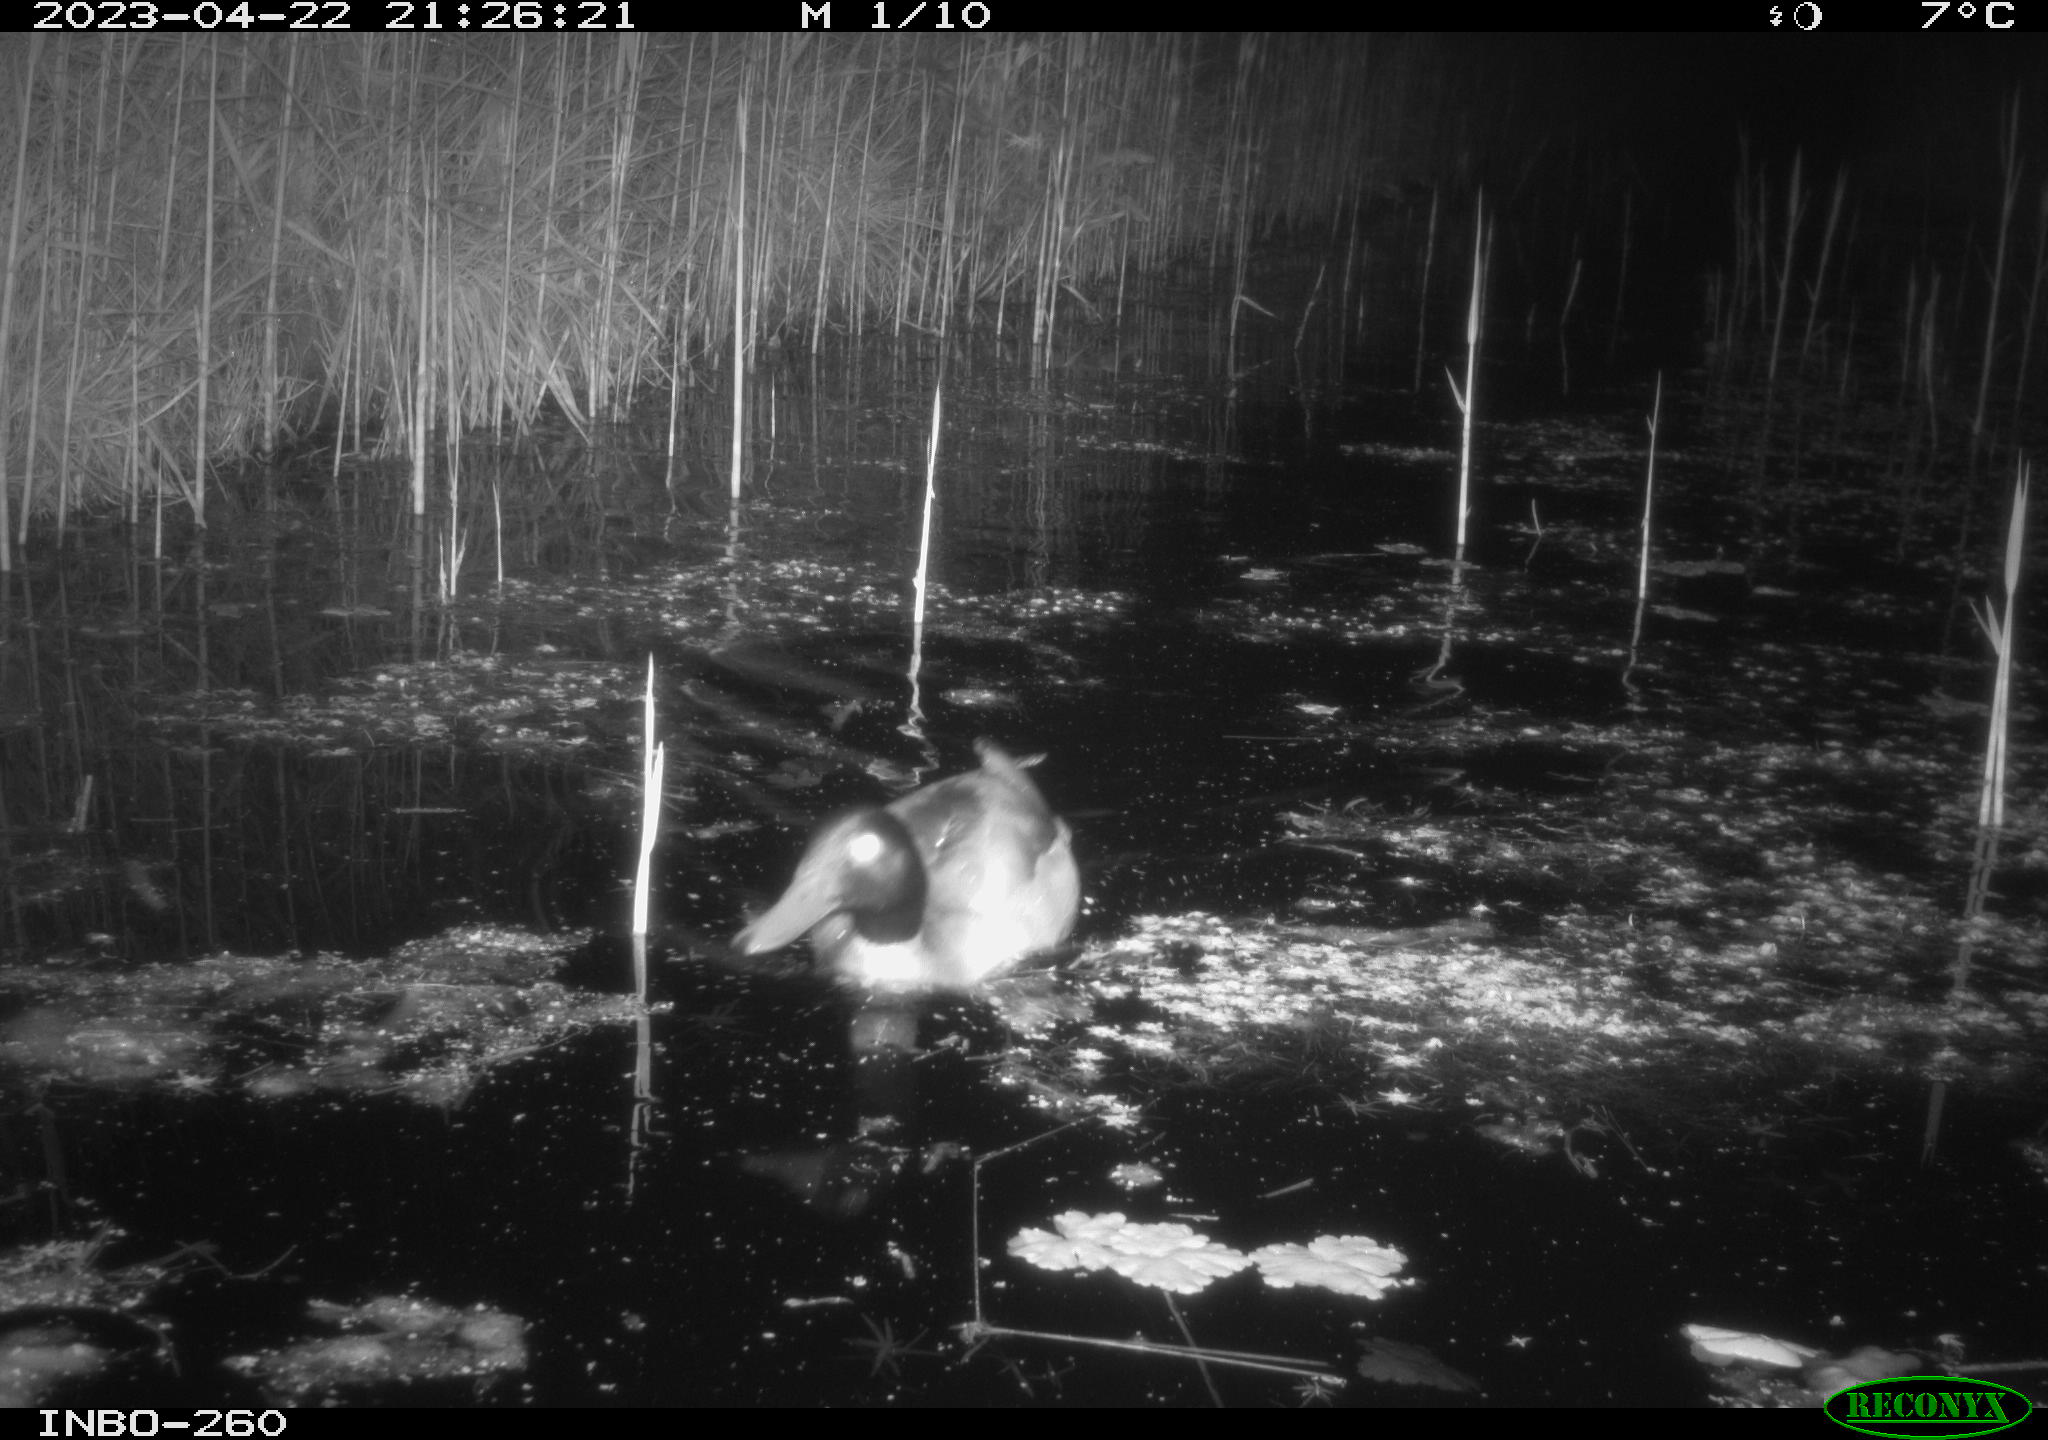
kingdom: Animalia
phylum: Chordata
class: Aves
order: Anseriformes
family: Anatidae
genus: Anas
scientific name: Anas
